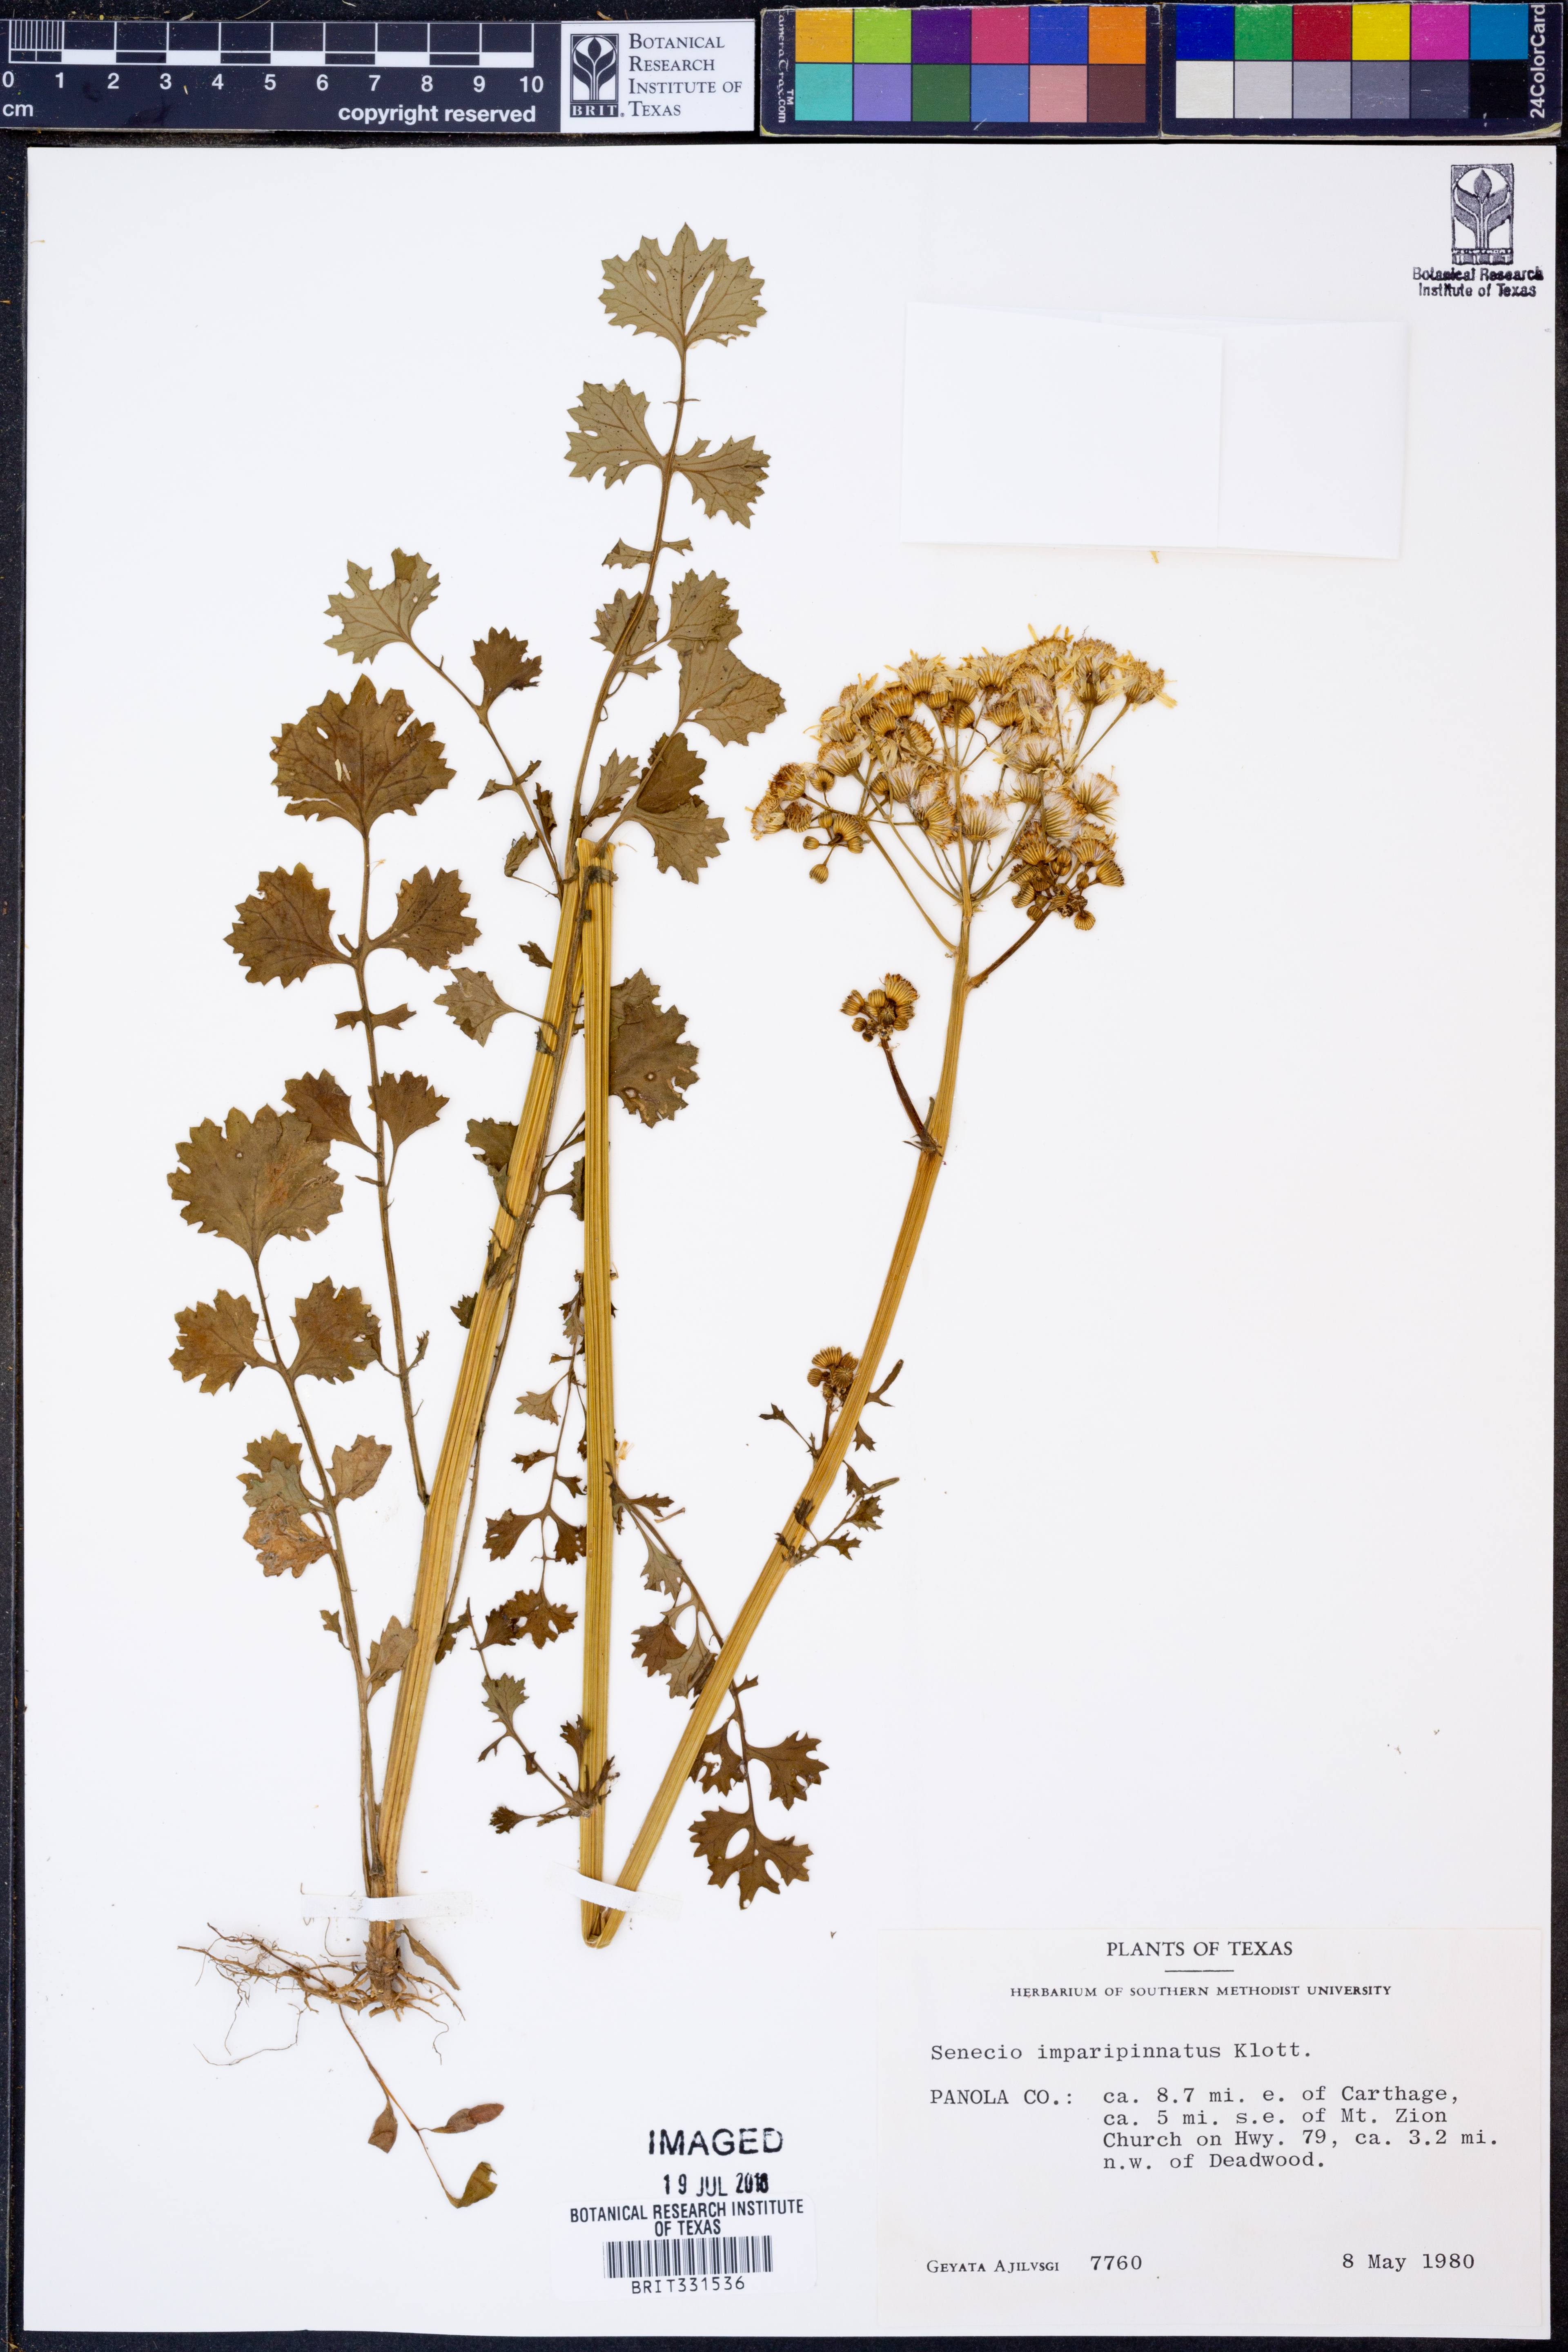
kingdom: Plantae
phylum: Tracheophyta
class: Magnoliopsida
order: Asterales
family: Asteraceae
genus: Packera
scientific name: Packera tampicana
